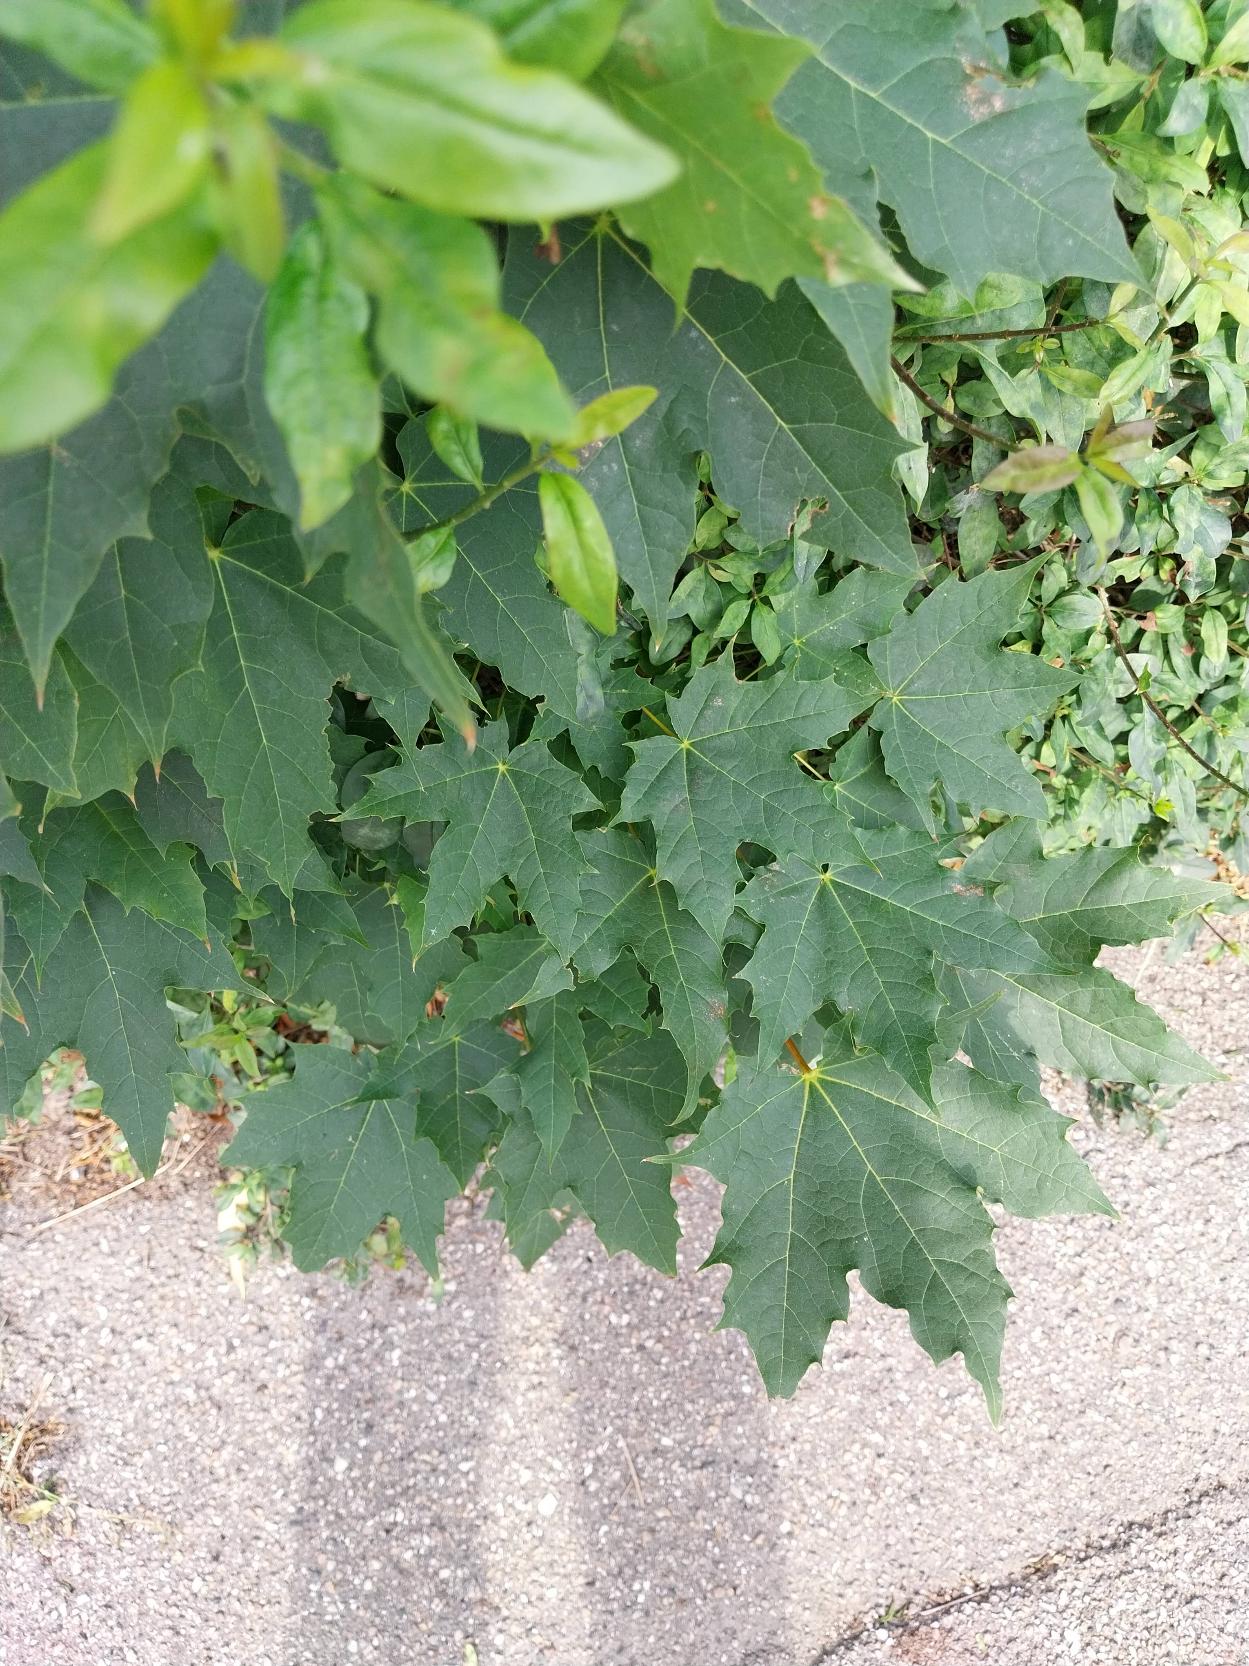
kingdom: Plantae
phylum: Tracheophyta
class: Magnoliopsida
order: Sapindales
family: Sapindaceae
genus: Acer
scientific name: Acer platanoides
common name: Spids-løn
